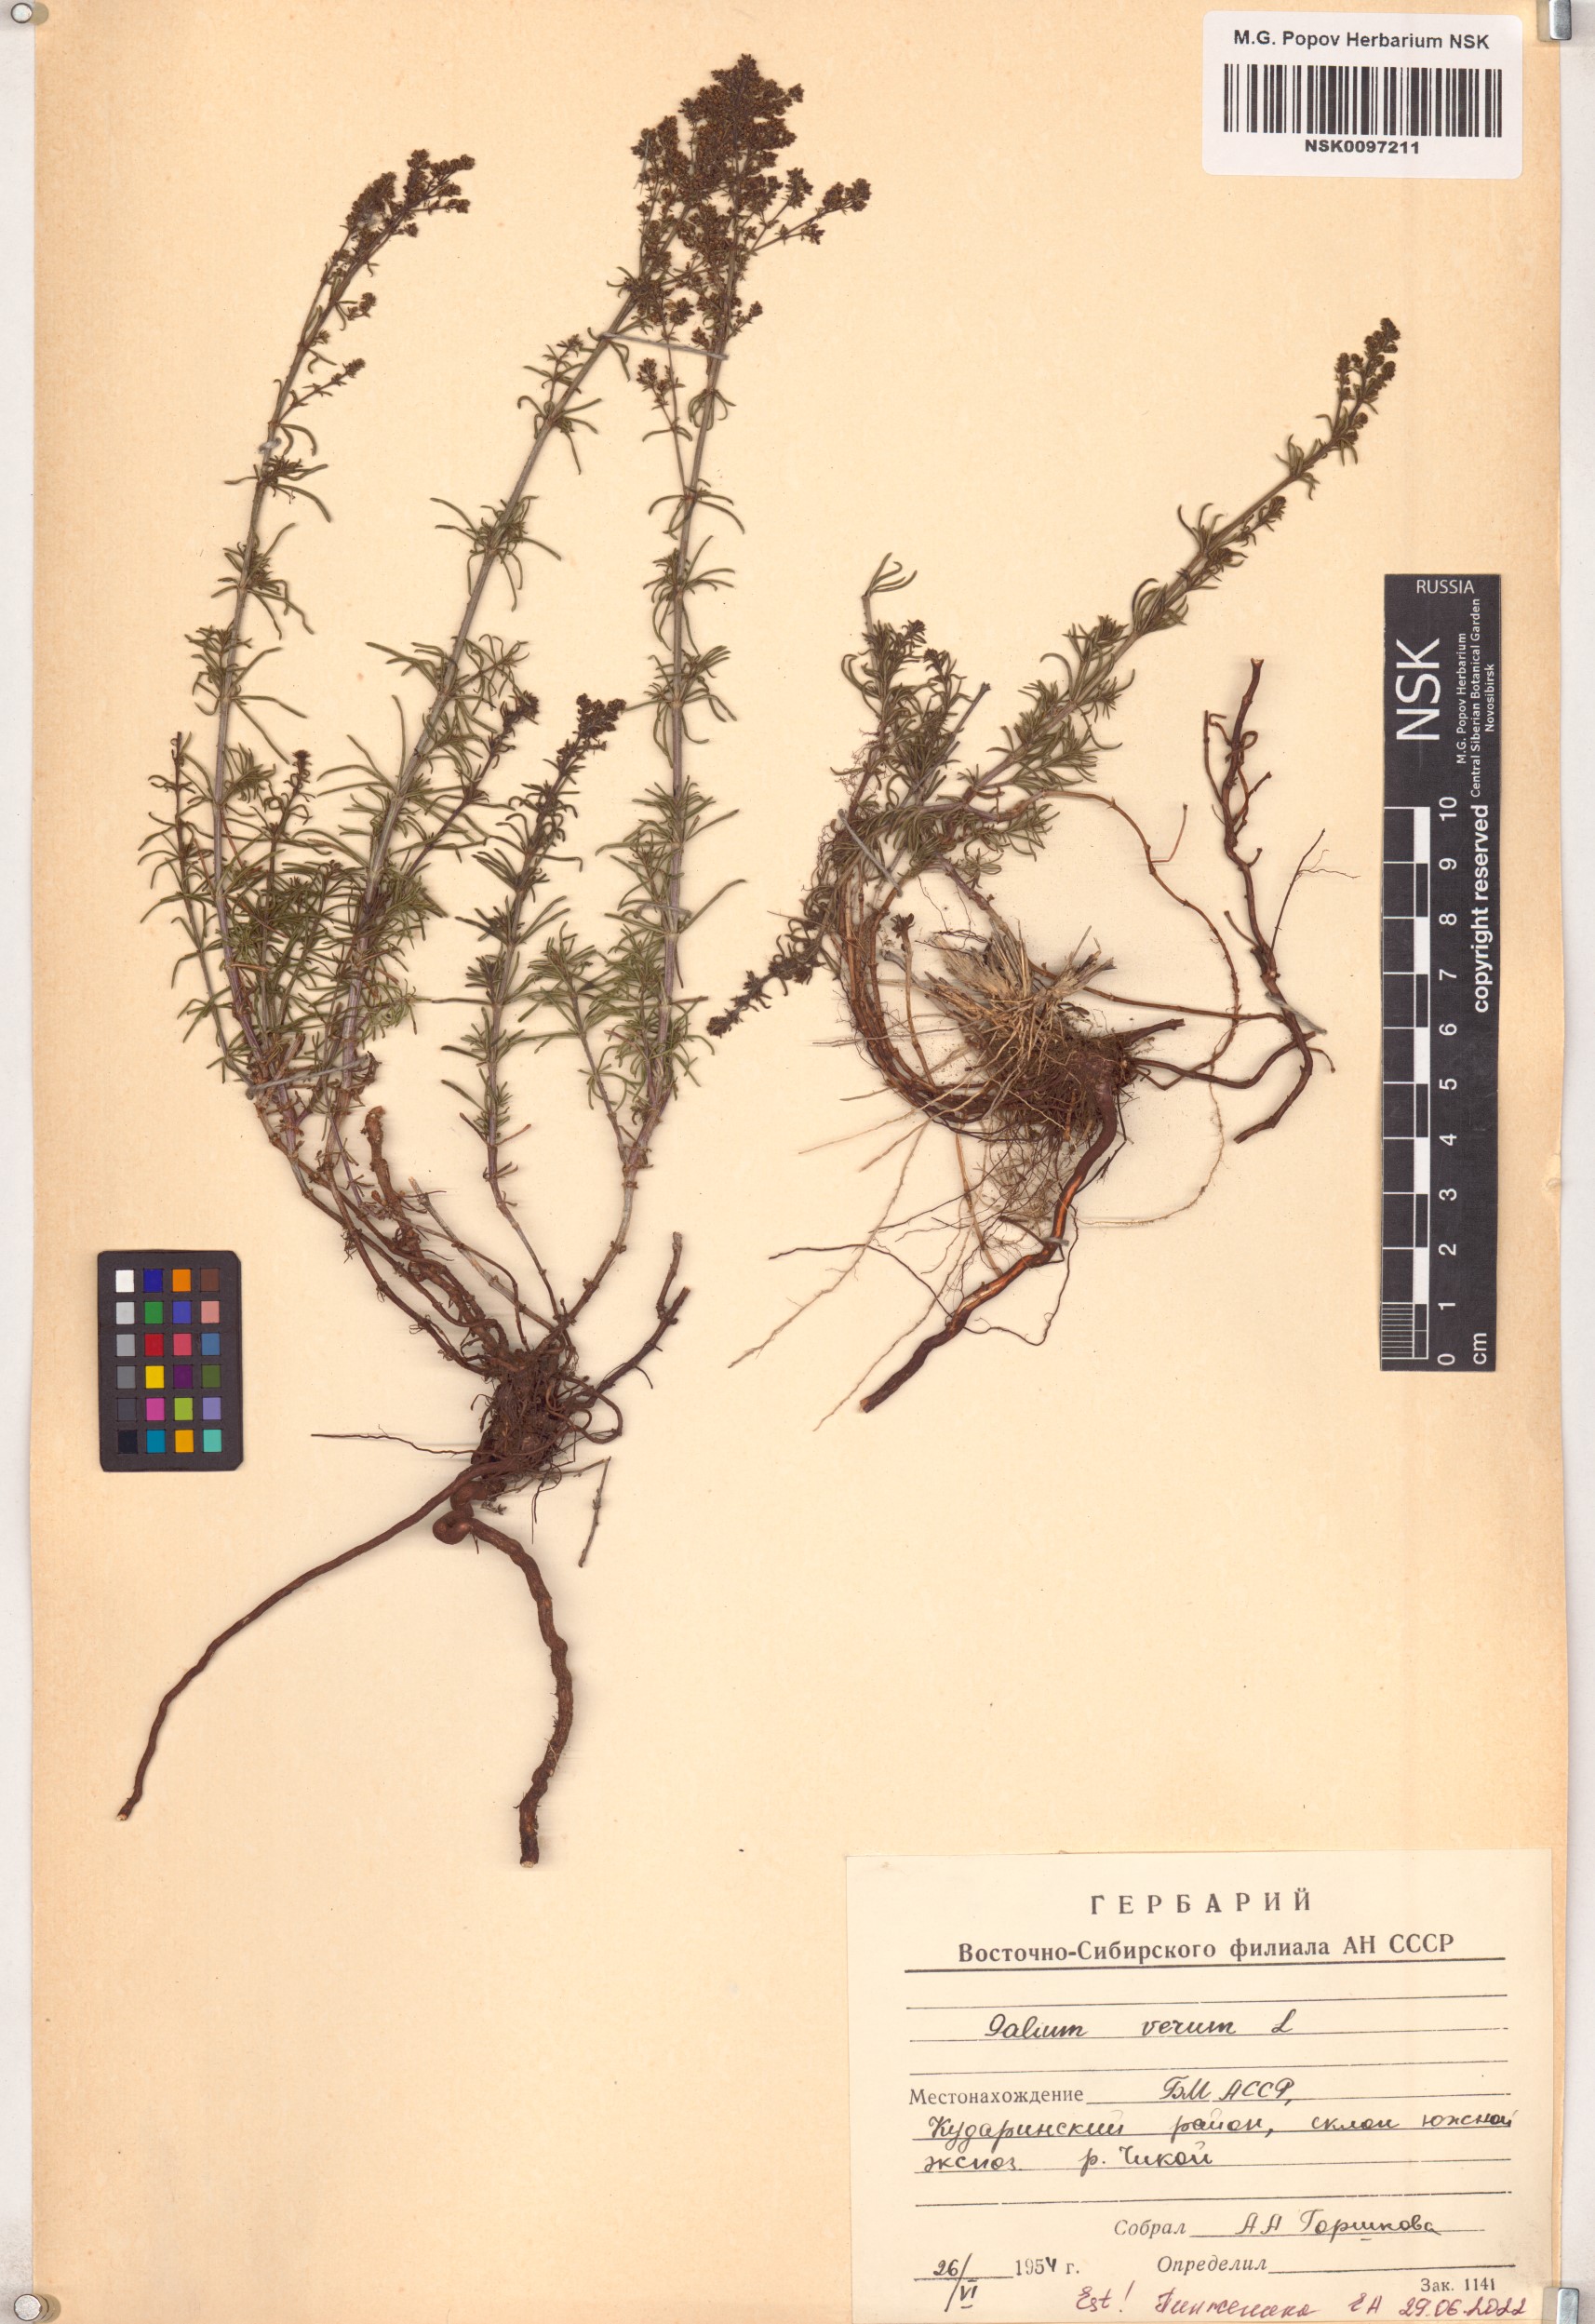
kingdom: Plantae
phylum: Tracheophyta
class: Magnoliopsida
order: Gentianales
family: Rubiaceae
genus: Galium
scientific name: Galium verum
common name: Lady's bedstraw
